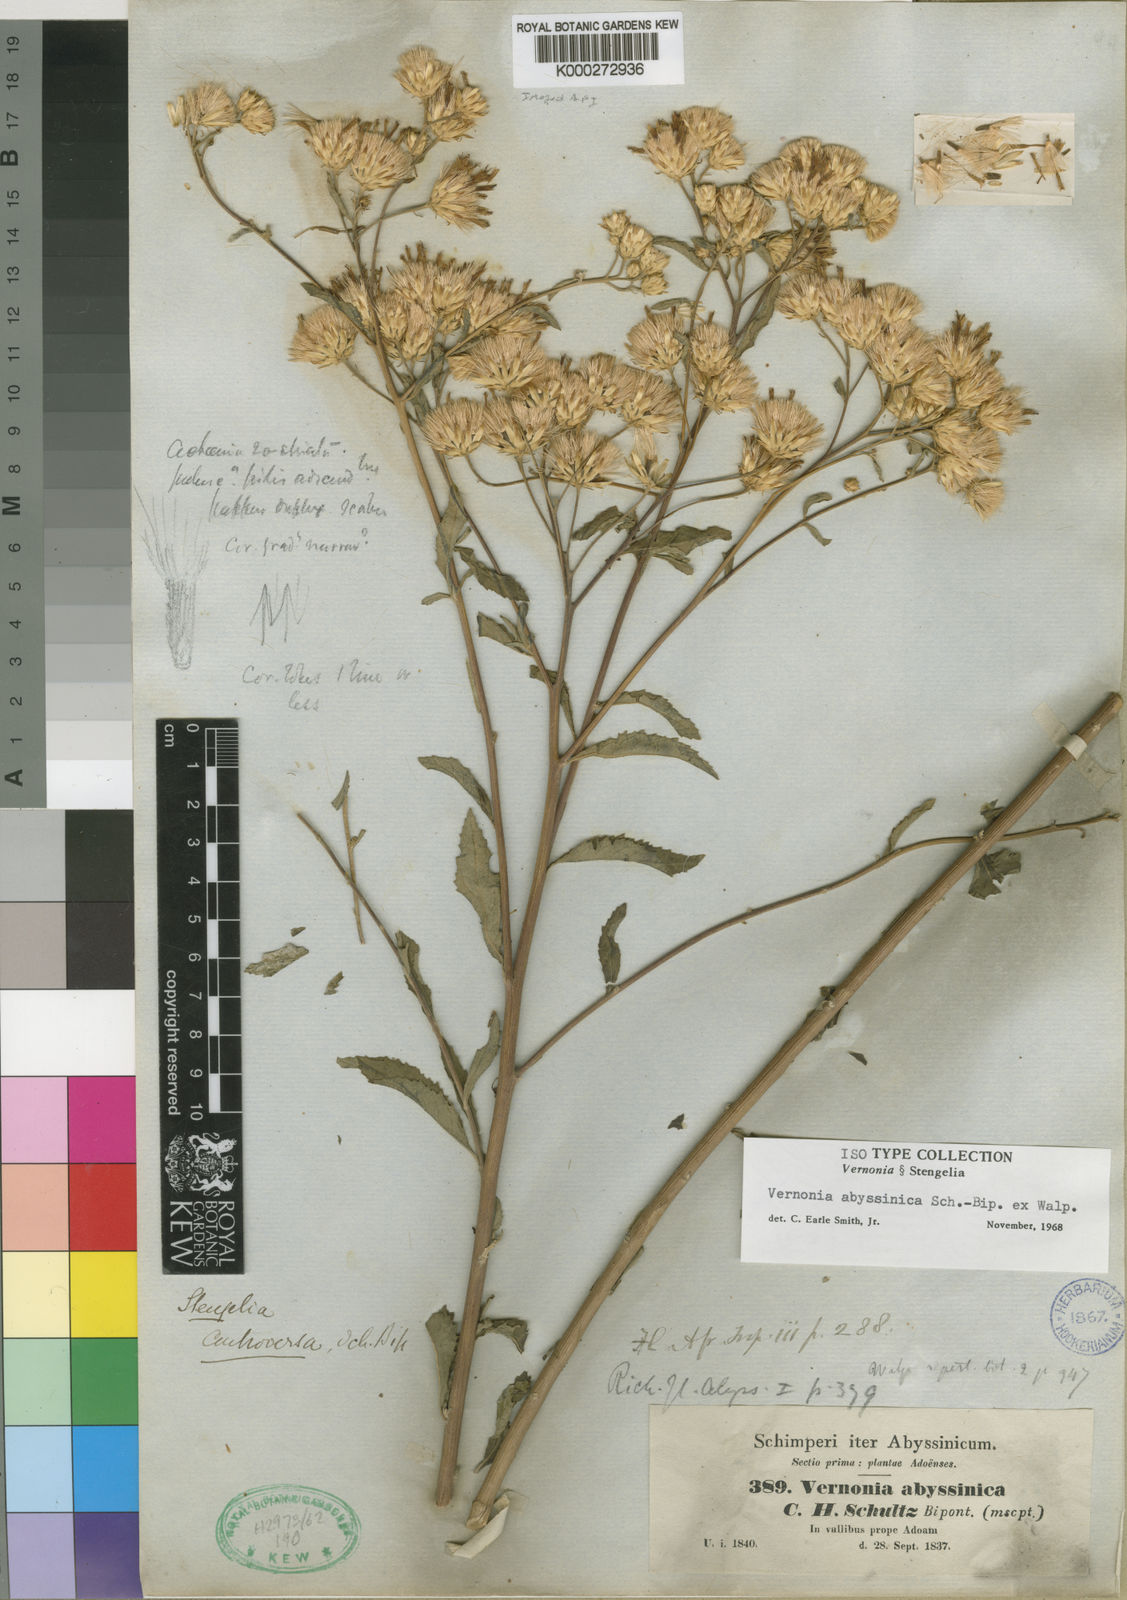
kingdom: Plantae
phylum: Tracheophyta
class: Magnoliopsida
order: Asterales
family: Asteraceae
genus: Nothovernonia
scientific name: Nothovernonia purpurea
